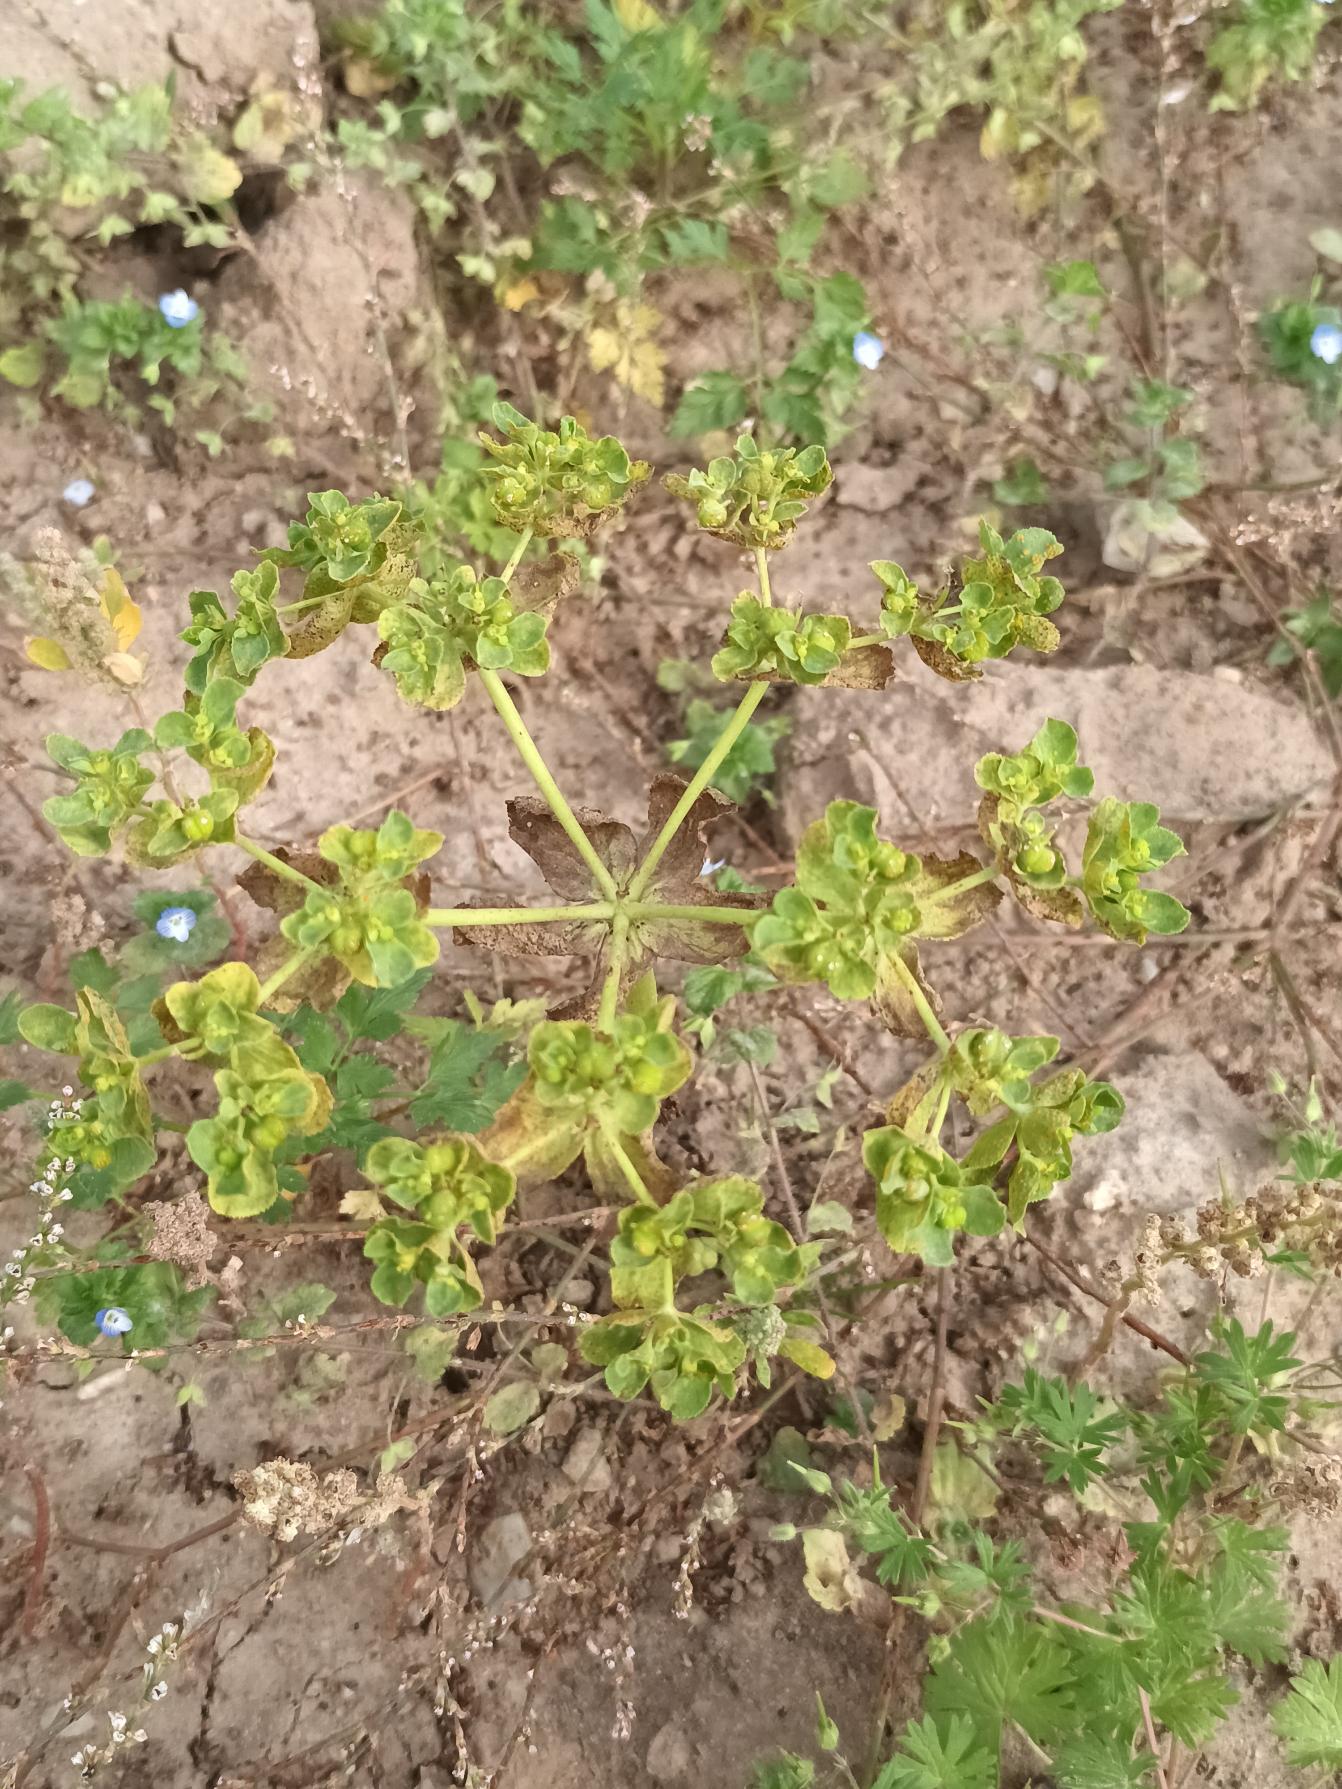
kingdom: Plantae
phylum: Tracheophyta
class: Magnoliopsida
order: Malpighiales
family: Euphorbiaceae
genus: Euphorbia
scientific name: Euphorbia helioscopia
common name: Skærm-vortemælk
